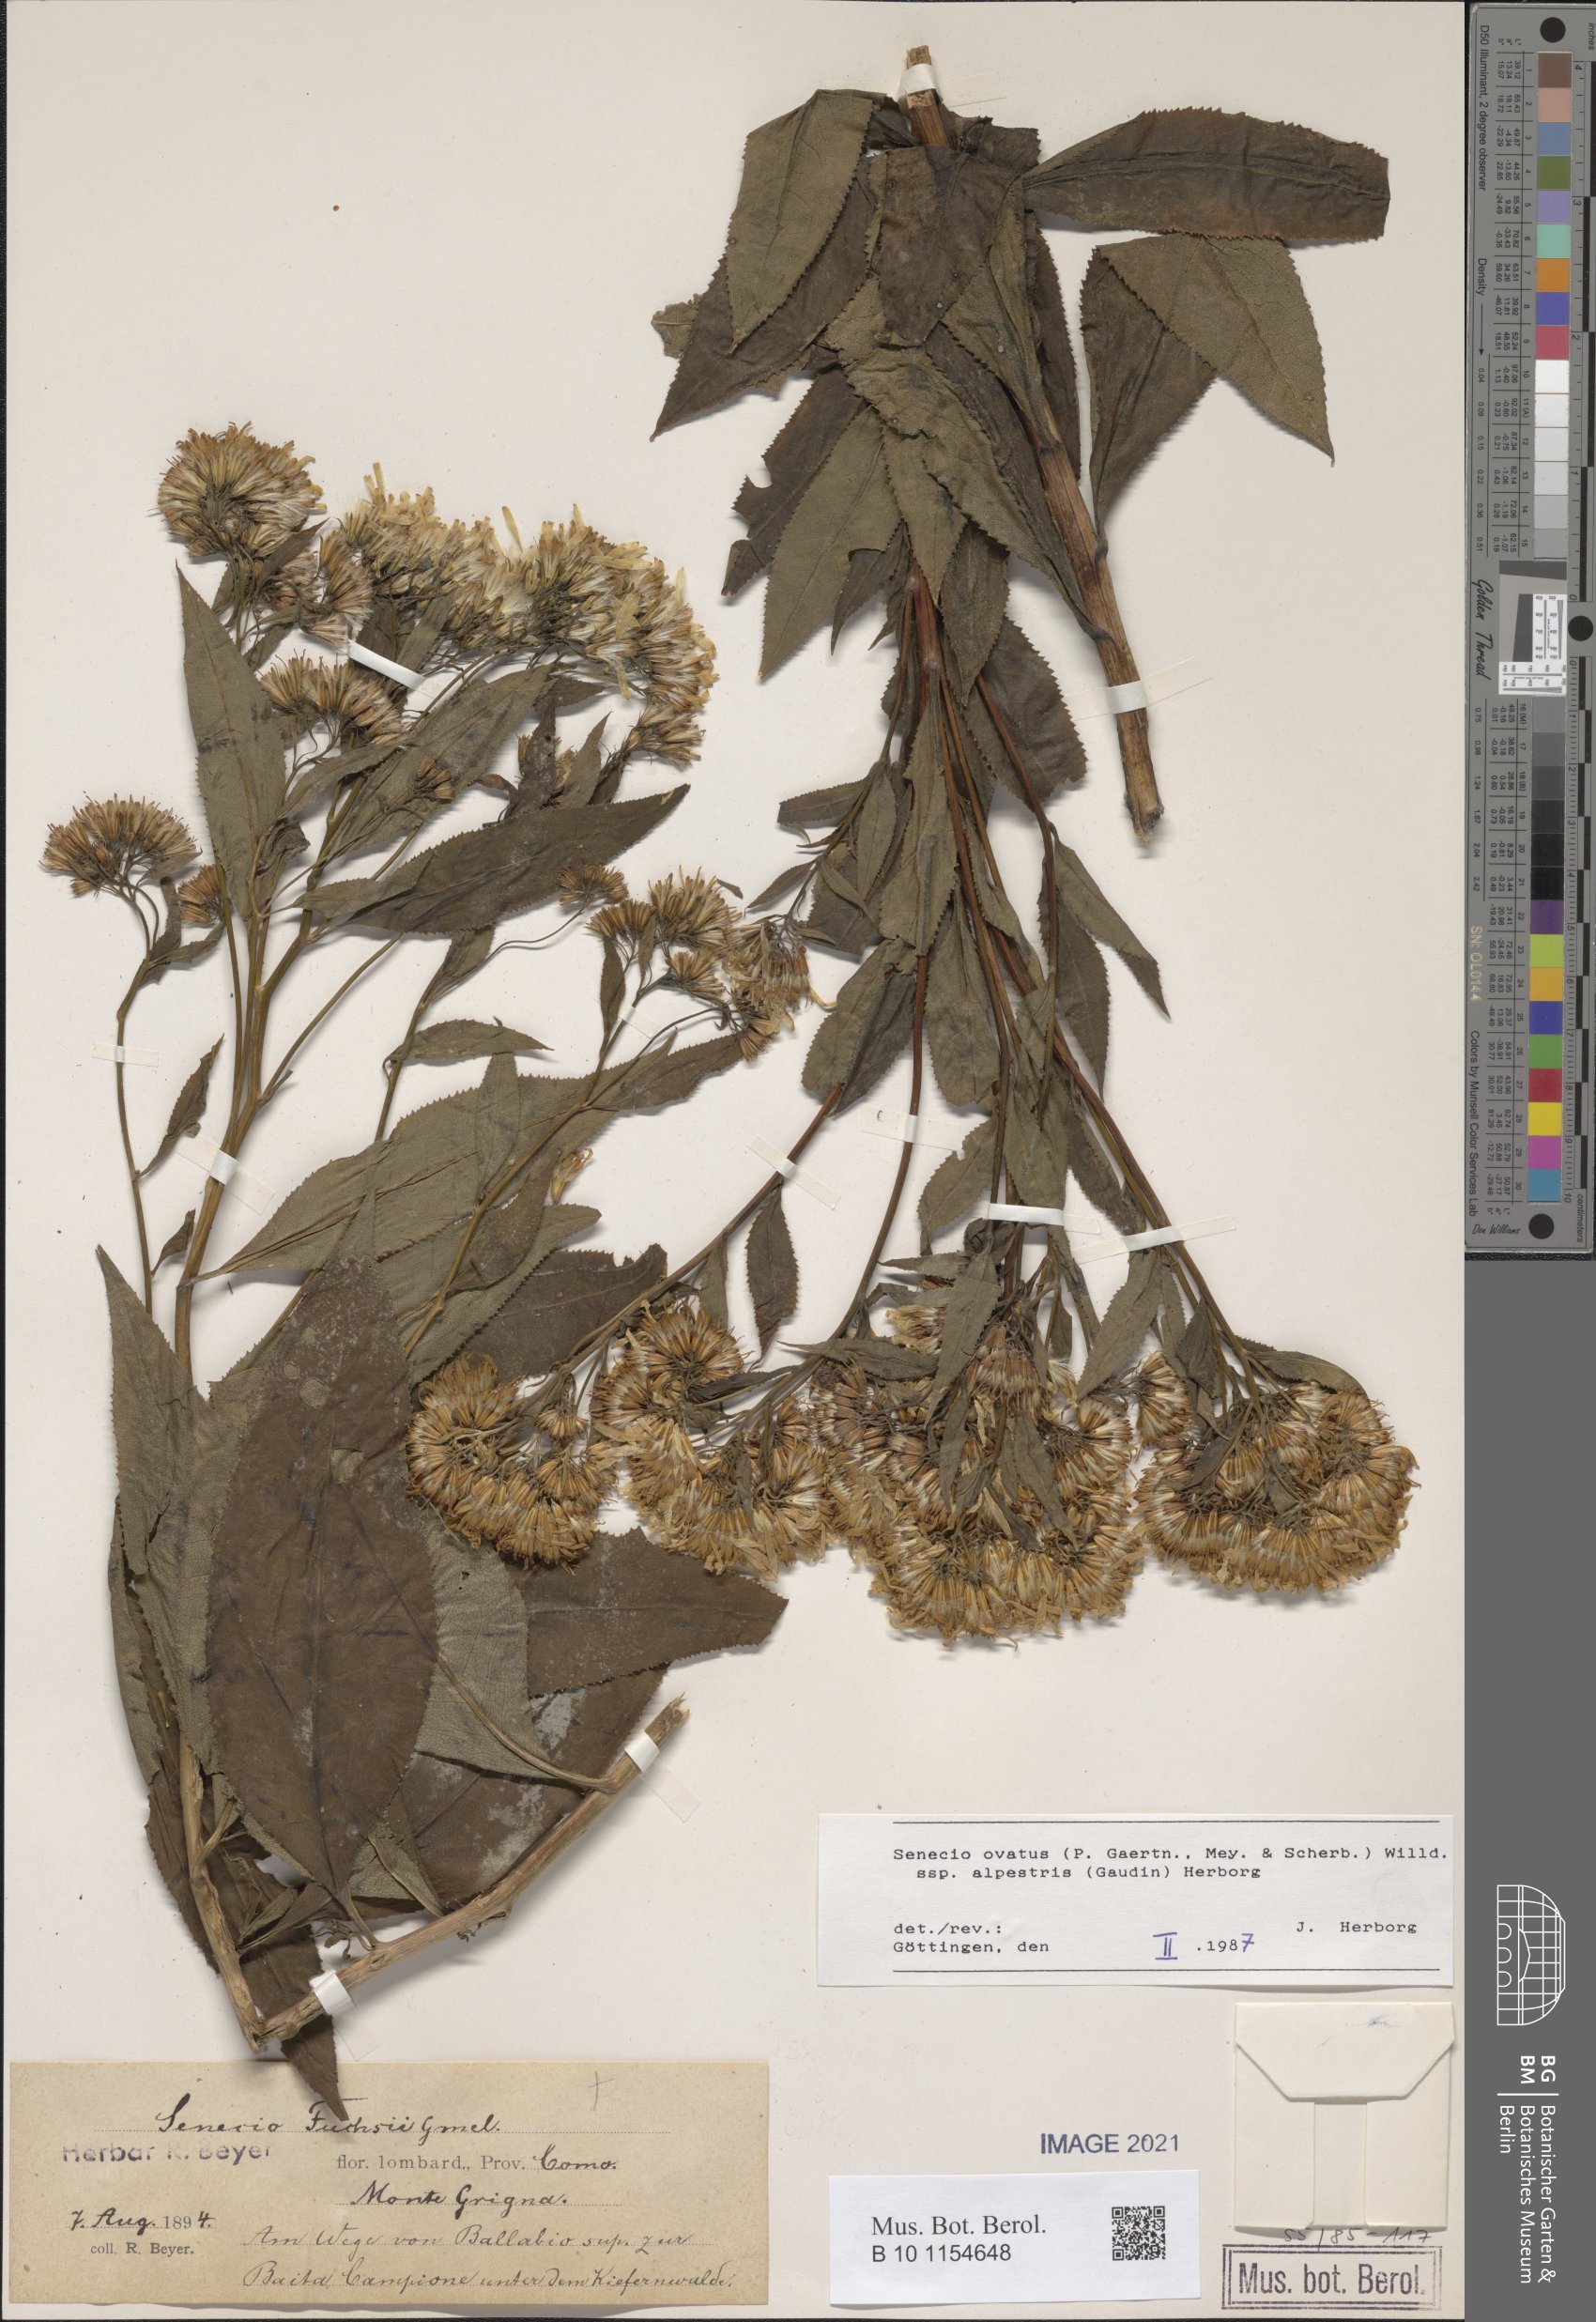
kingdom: Plantae
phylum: Tracheophyta
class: Magnoliopsida
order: Asterales
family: Asteraceae
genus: Senecio
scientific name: Senecio ovatus
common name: Wood ragwort
